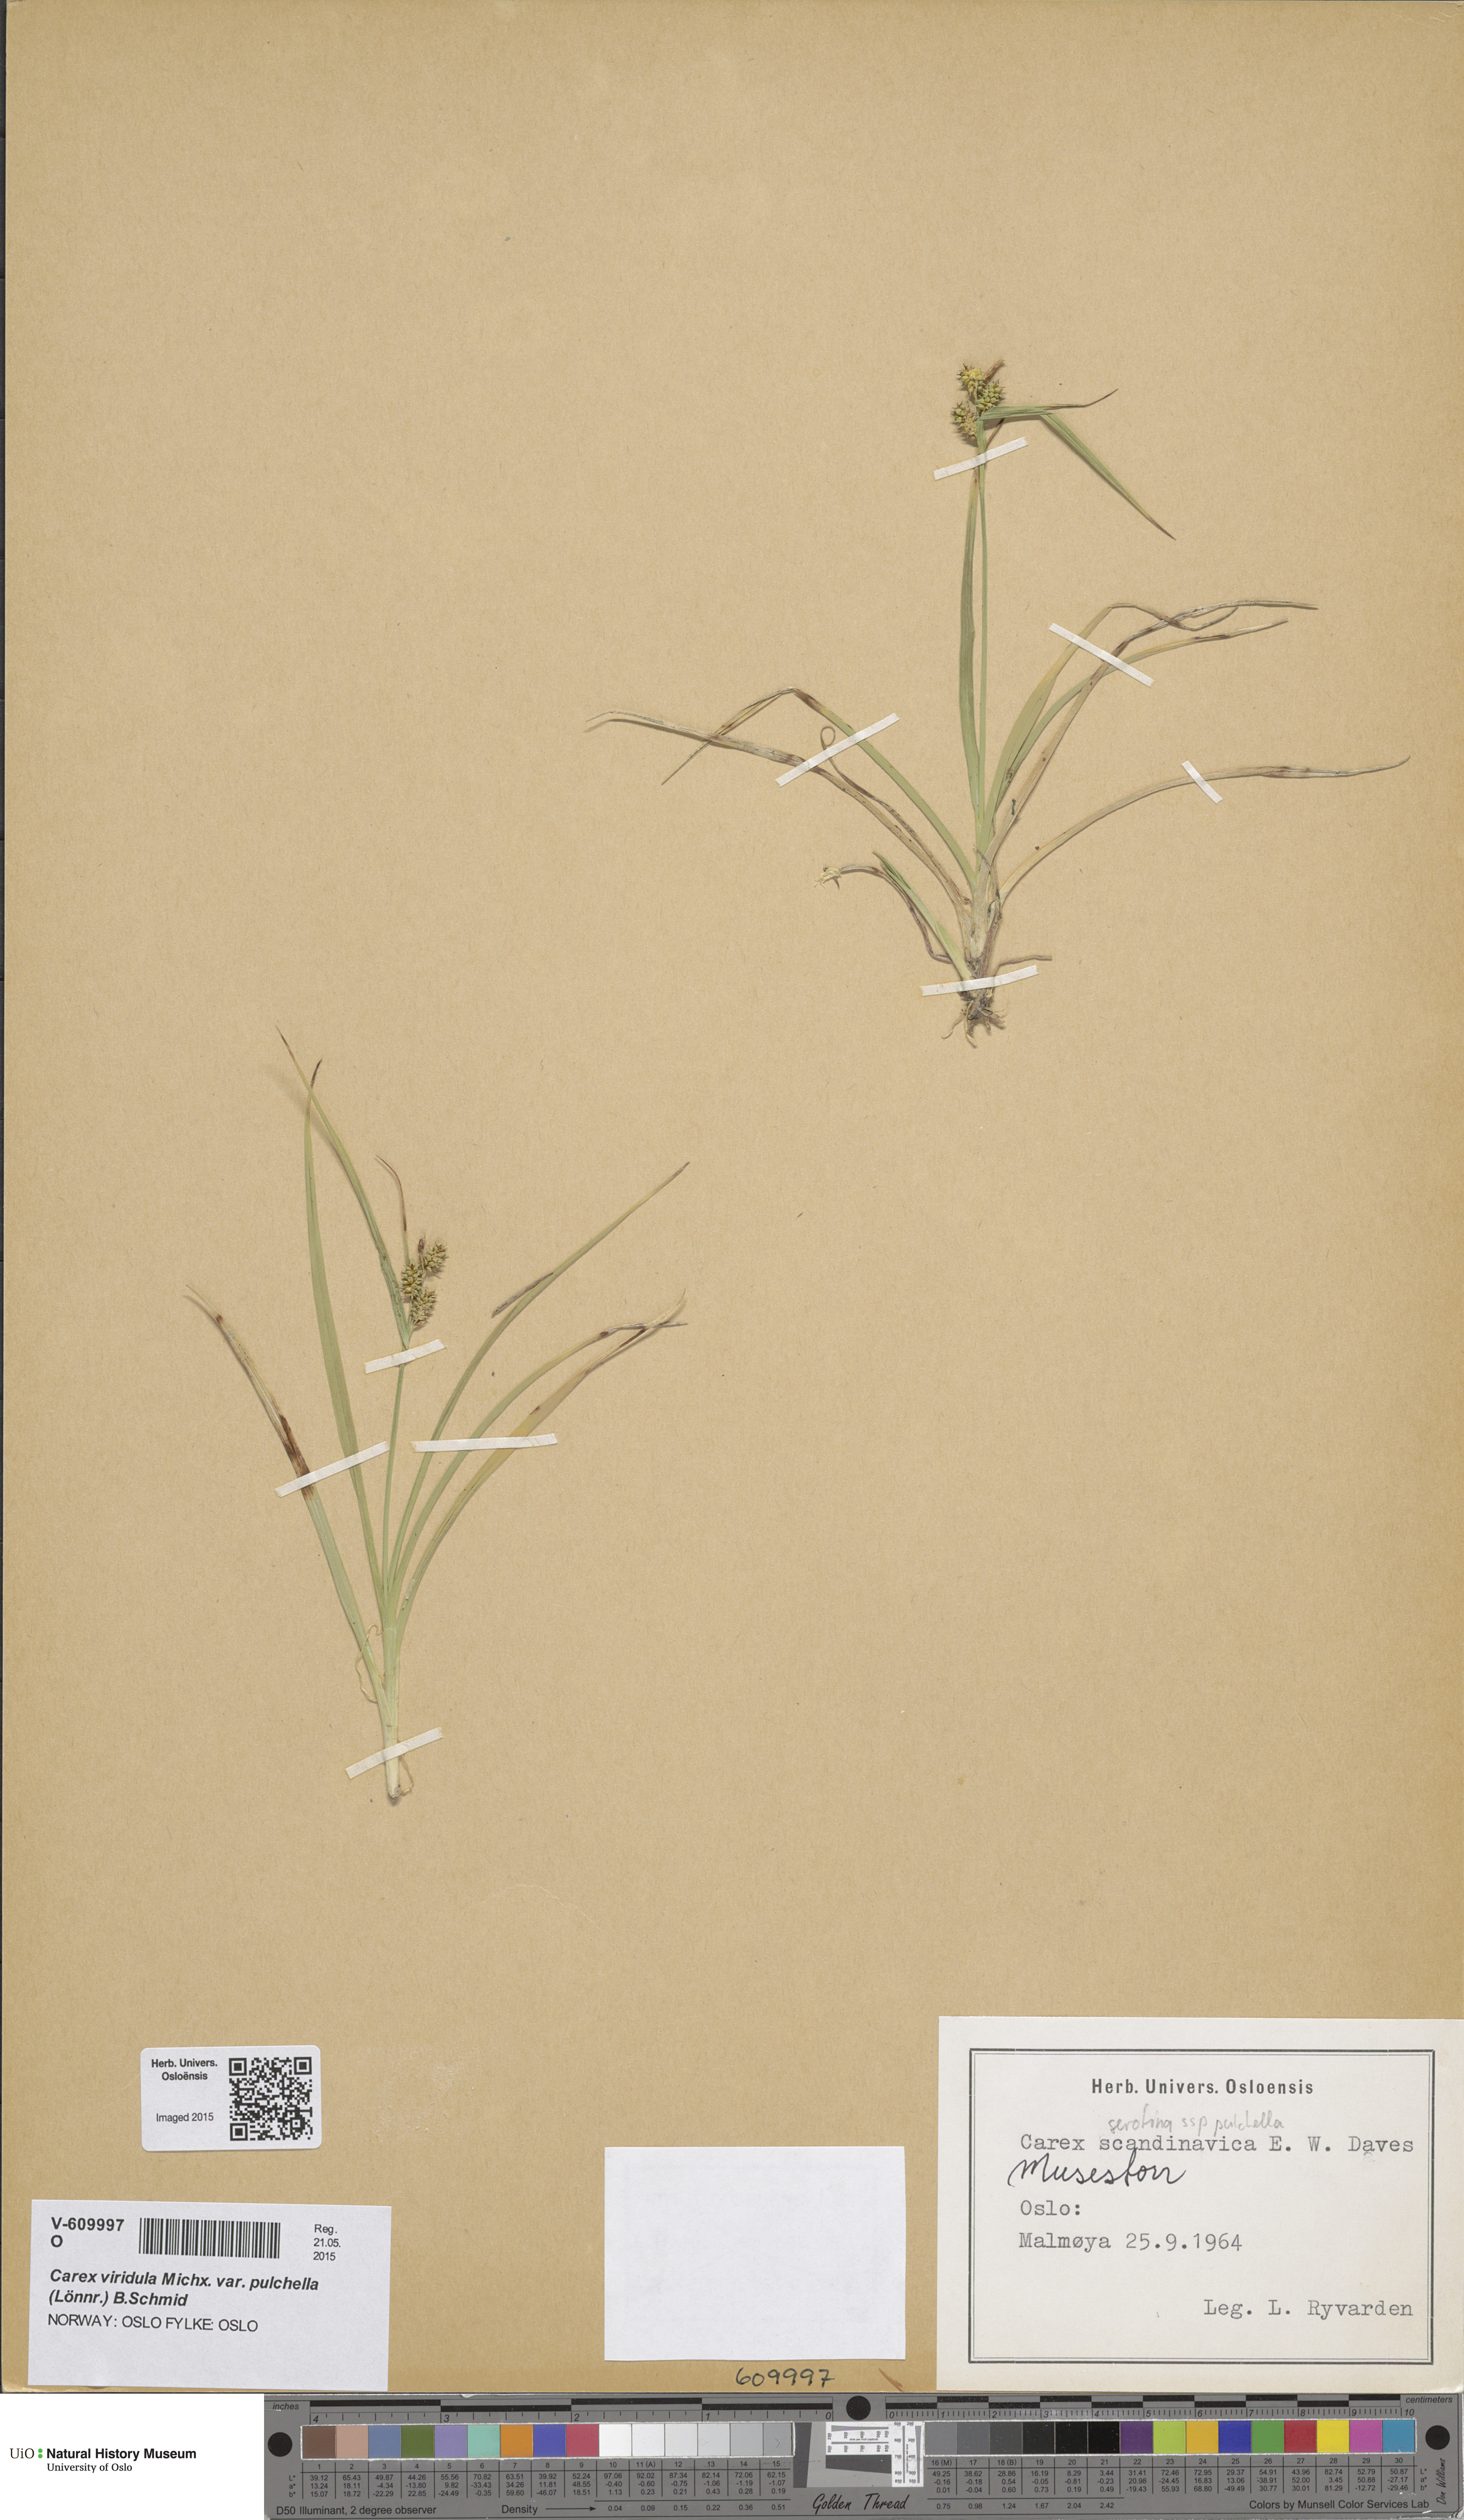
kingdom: Plantae
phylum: Tracheophyta
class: Liliopsida
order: Poales
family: Cyperaceae
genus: Carex
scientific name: Carex oederi
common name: Common & small-fruited yellow-sedge
